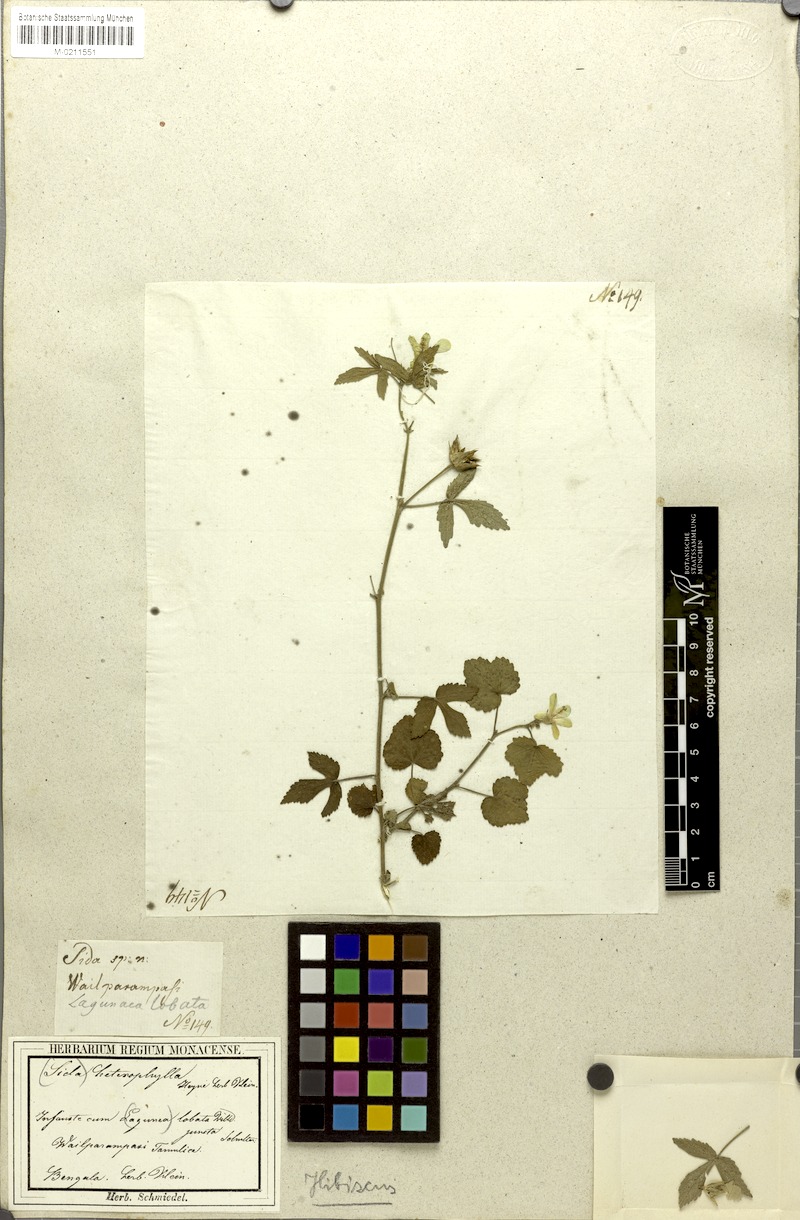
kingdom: Plantae
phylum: Tracheophyta
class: Magnoliopsida
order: Malvales
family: Malvaceae
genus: Hibiscus
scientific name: Hibiscus heterophyllus
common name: Queensland-sorrel
